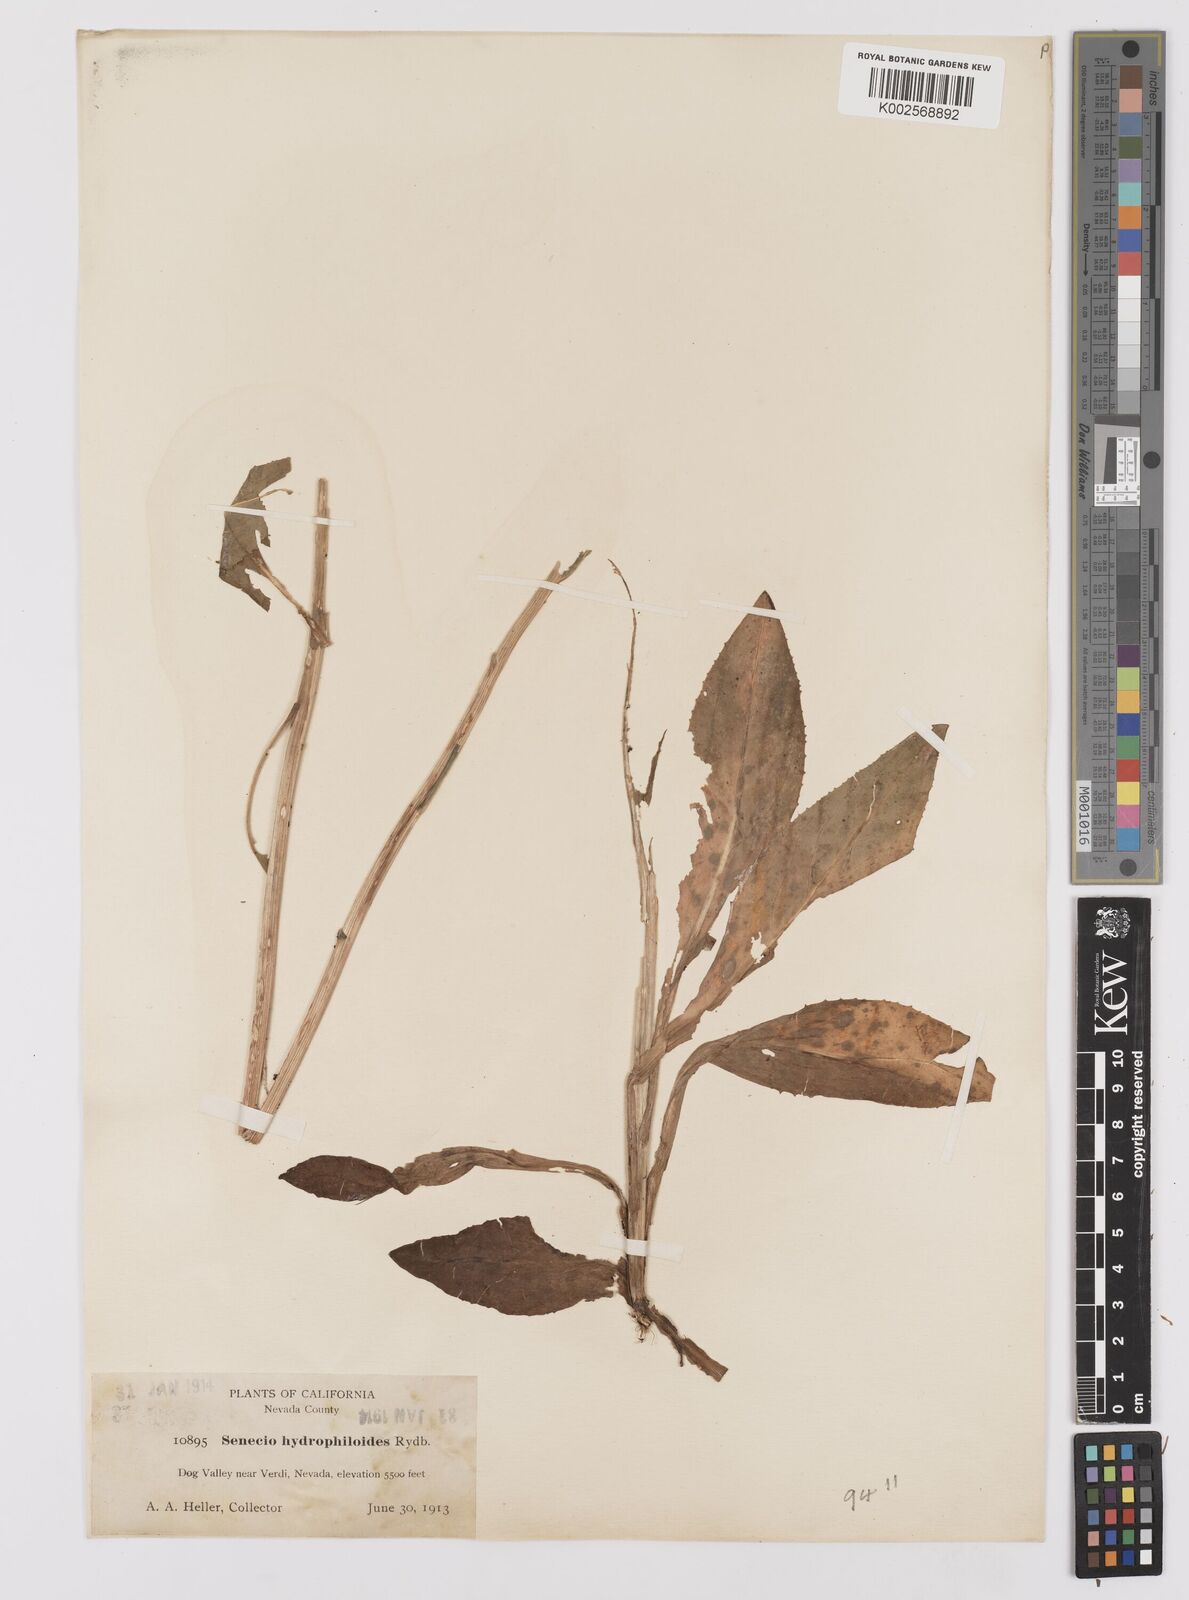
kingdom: Plantae
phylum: Tracheophyta
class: Magnoliopsida
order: Asterales
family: Asteraceae
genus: Senecio
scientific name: Senecio hydrophiloides
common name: Stout meadow groundsel
